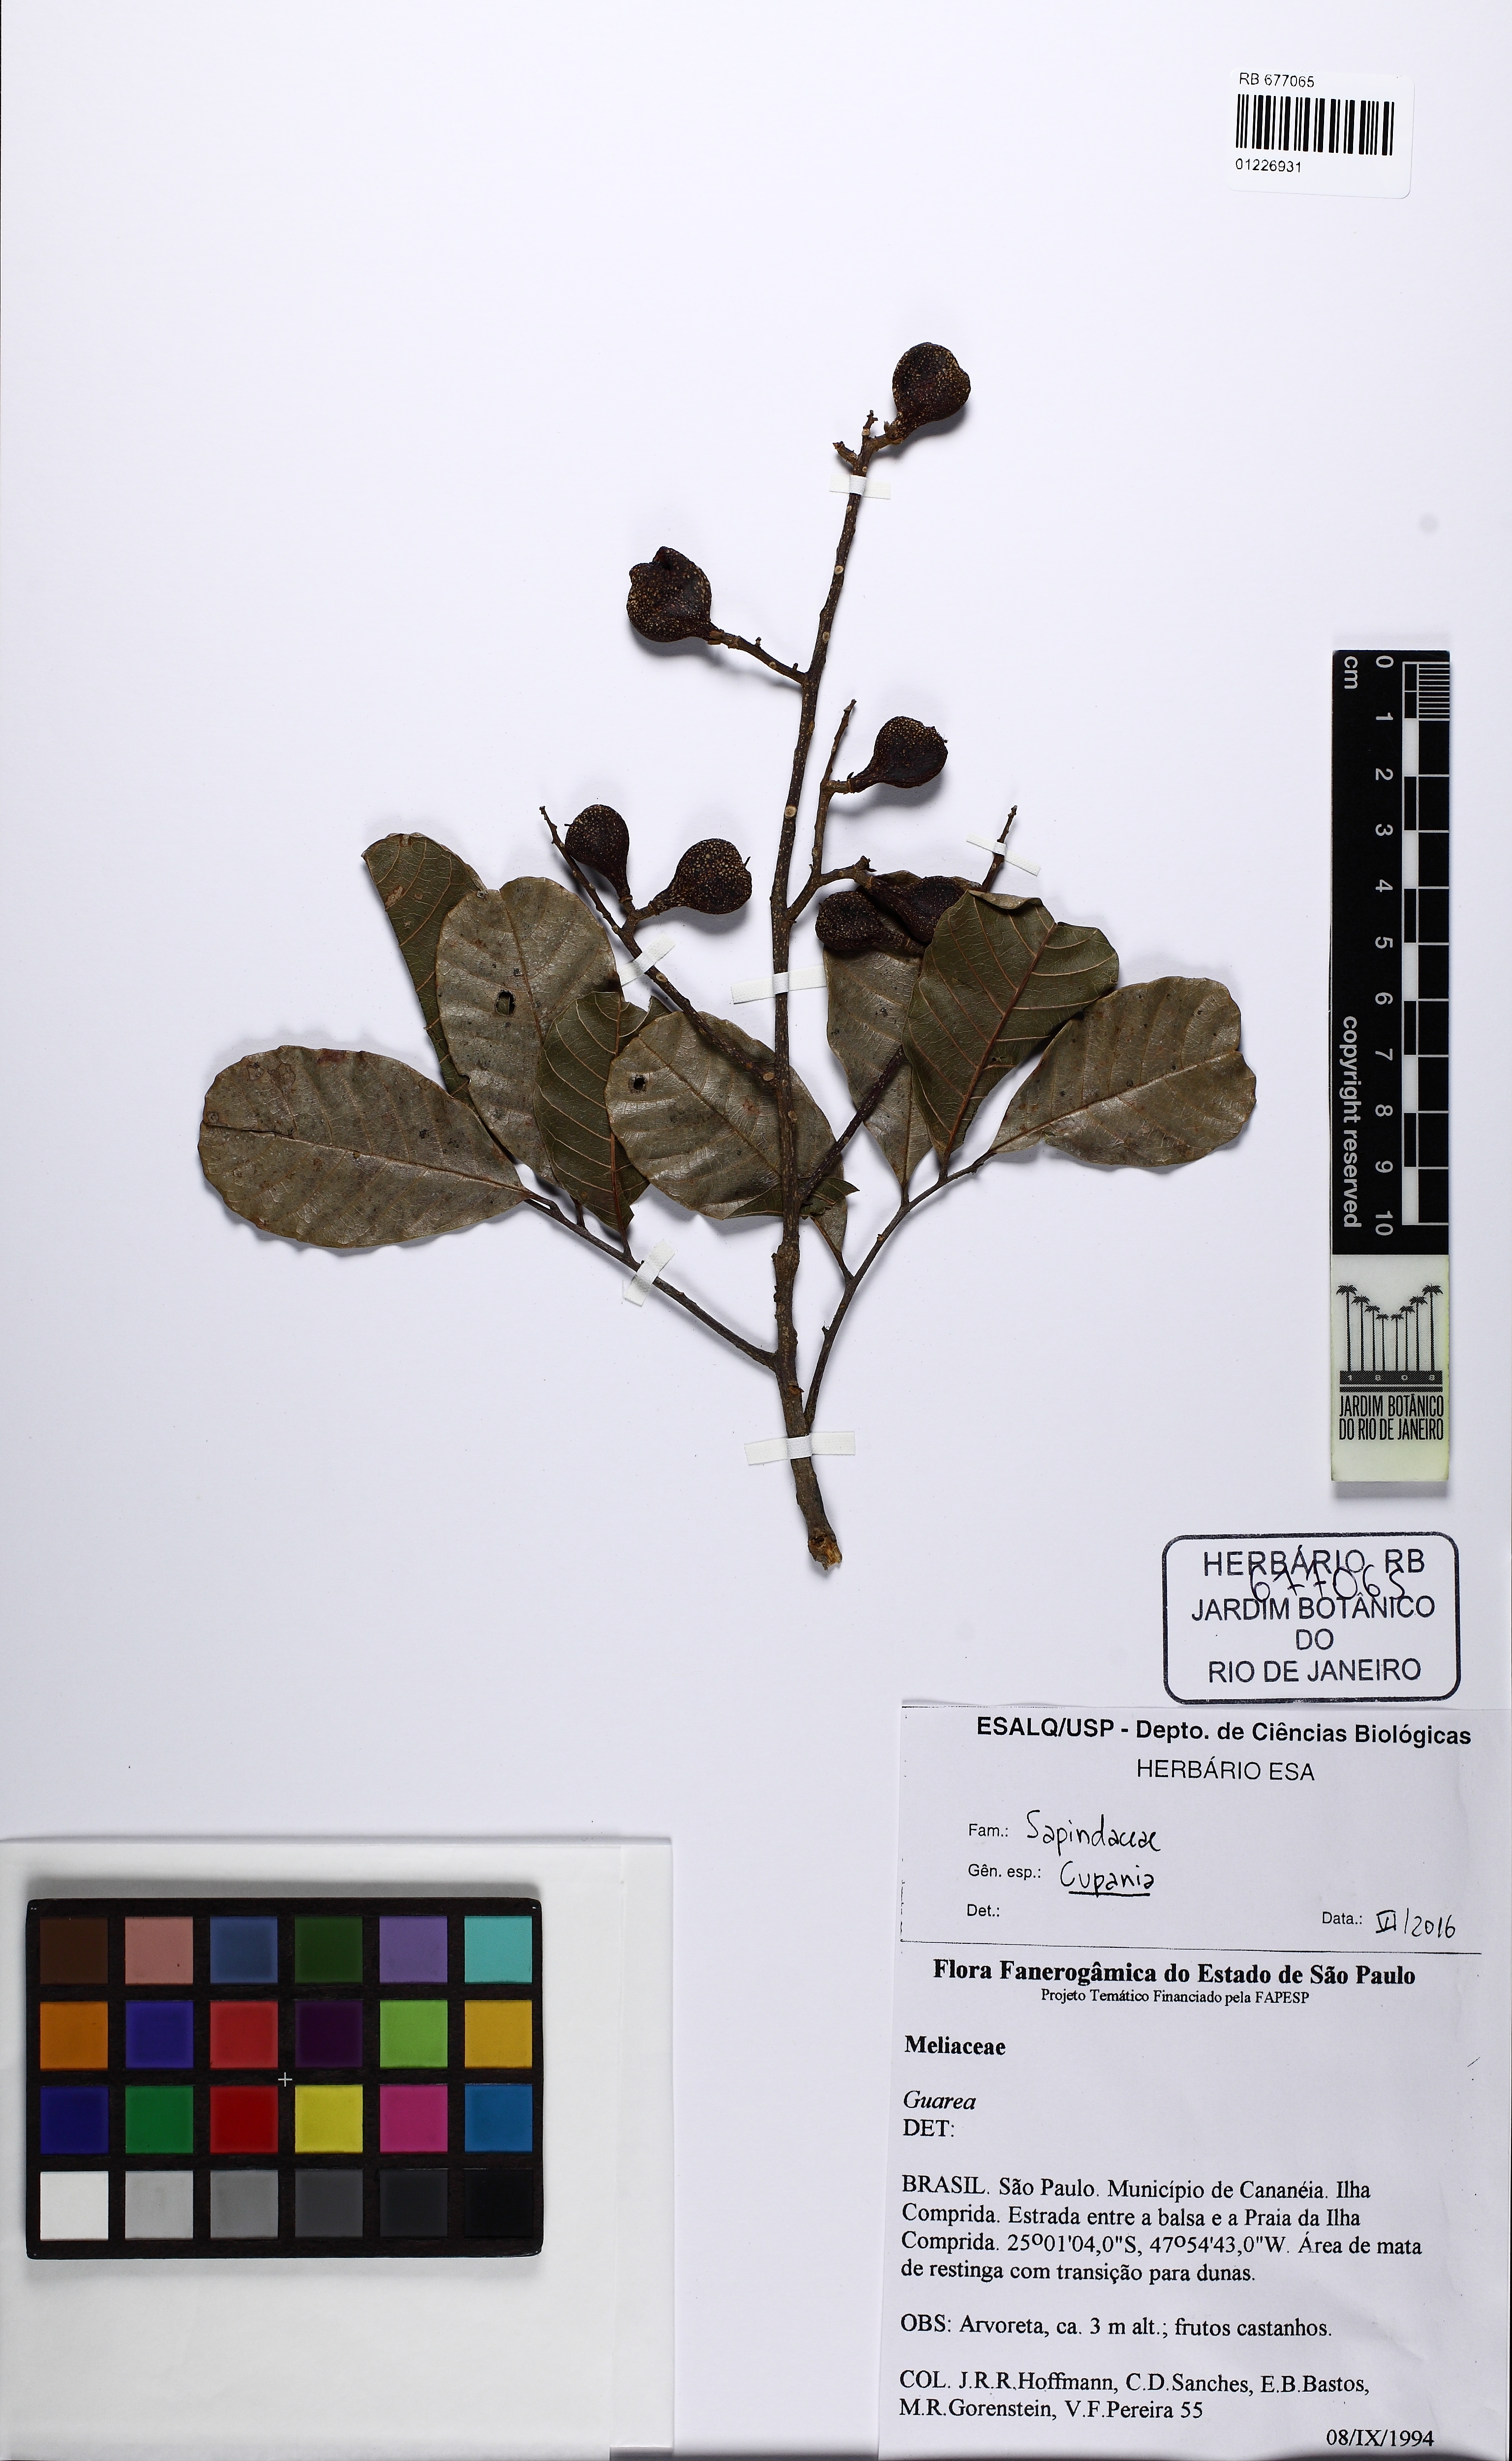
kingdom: Plantae
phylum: Tracheophyta
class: Magnoliopsida
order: Sapindales
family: Sapindaceae
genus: Cupania
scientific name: Cupania
